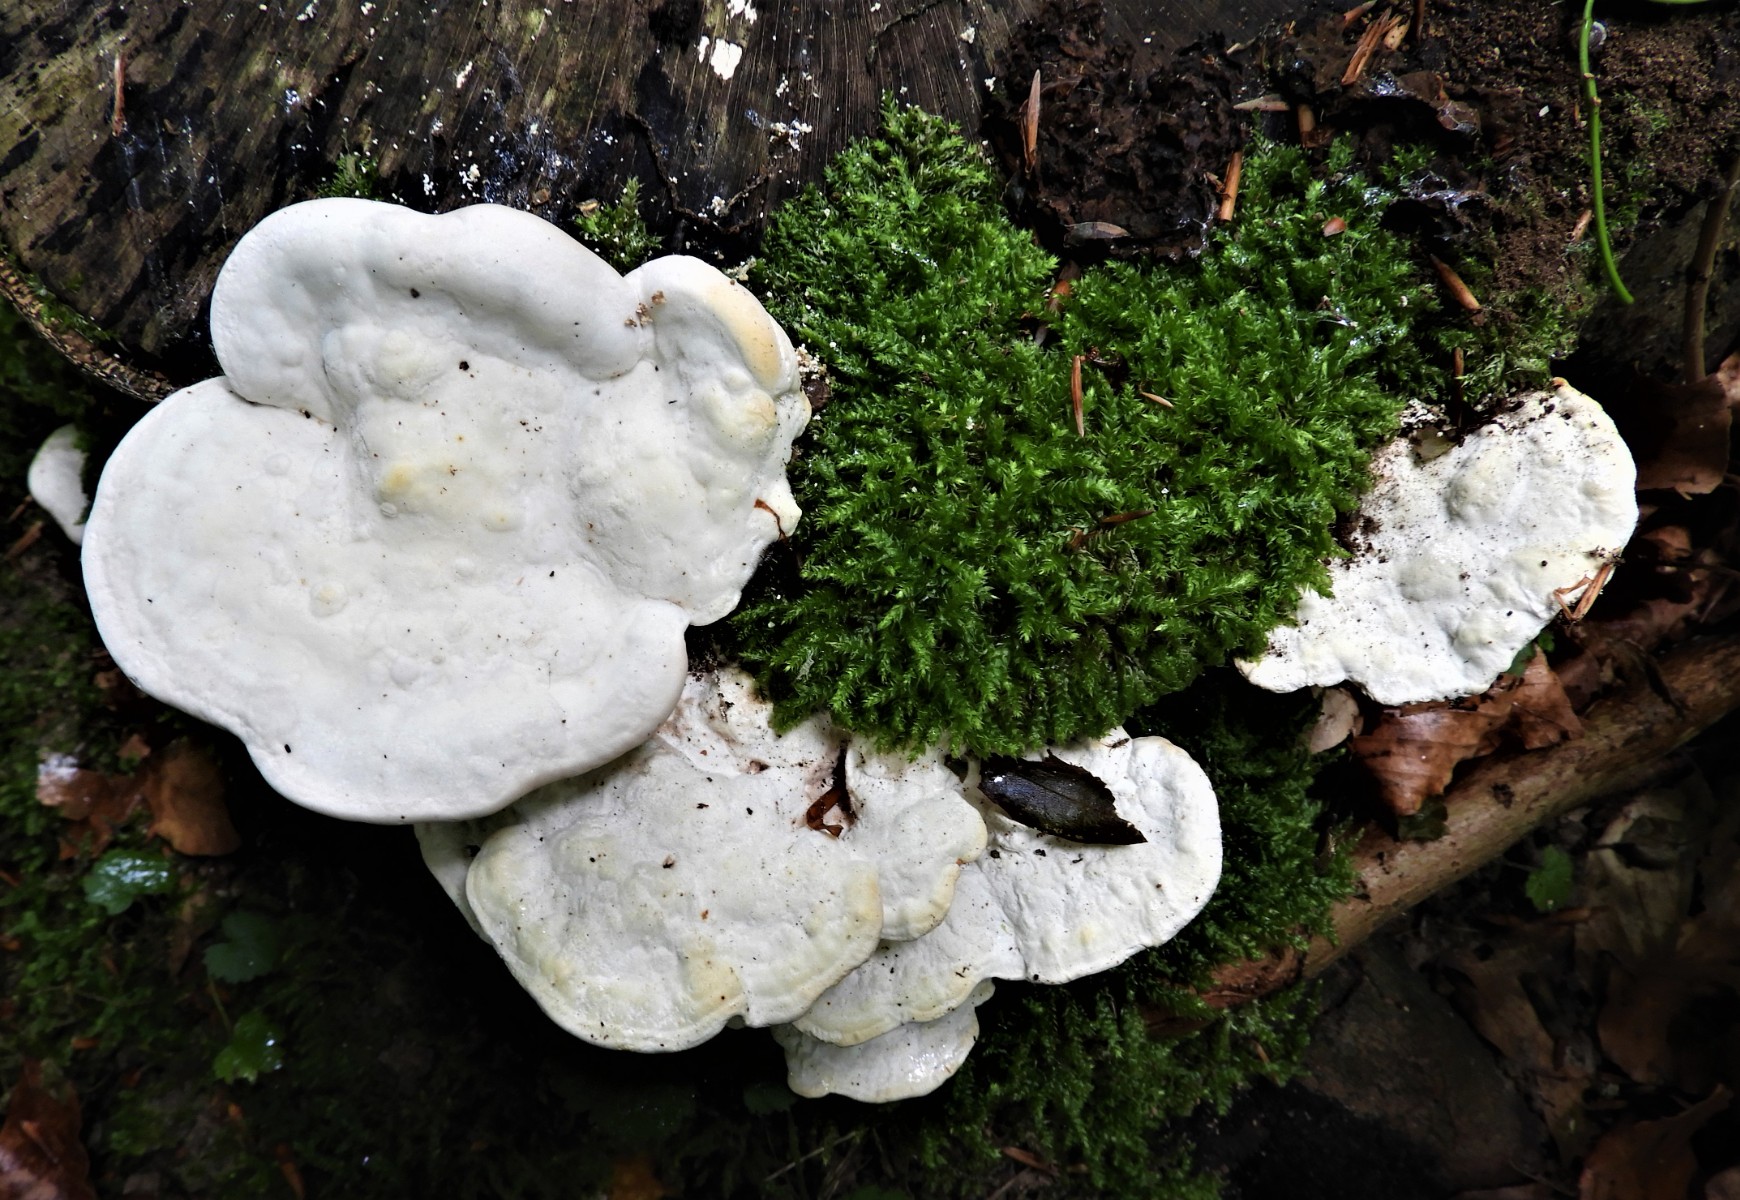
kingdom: Fungi
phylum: Basidiomycota
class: Agaricomycetes
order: Polyporales
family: Polyporaceae
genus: Trametes
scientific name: Trametes gibbosa
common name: puklet læderporesvamp
